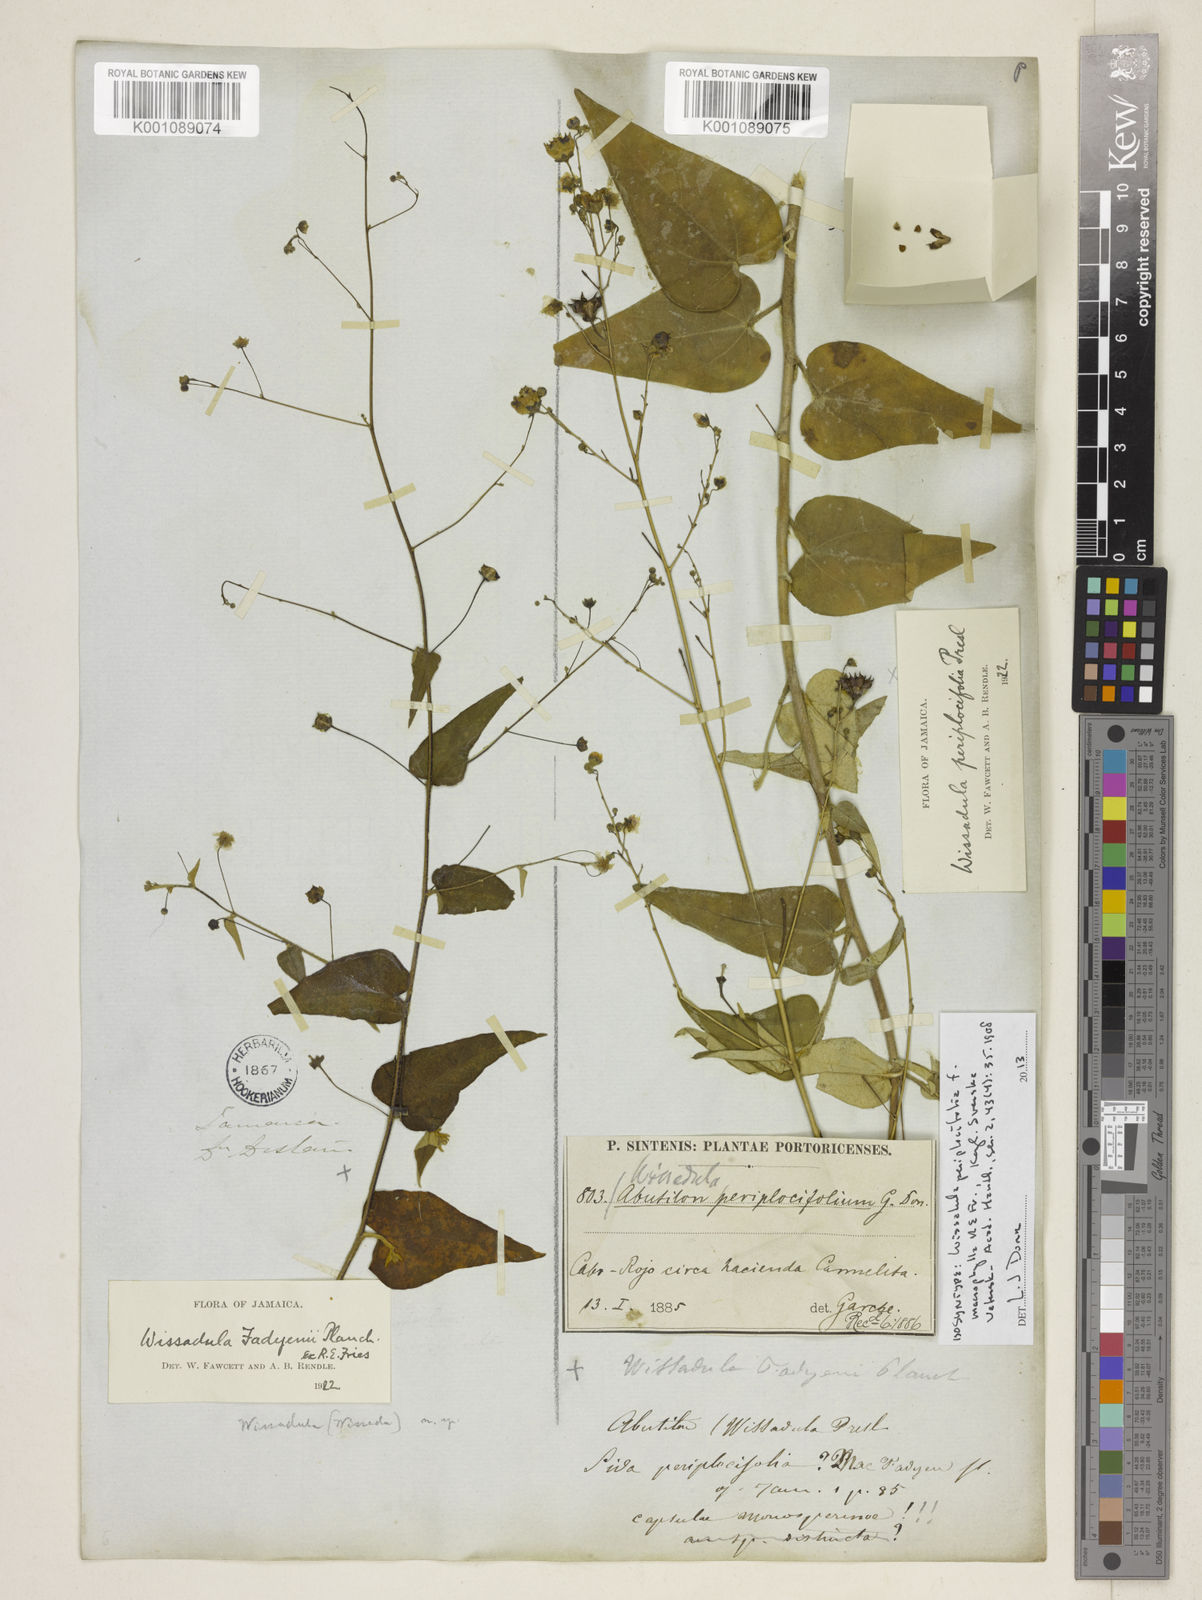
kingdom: Plantae
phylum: Tracheophyta
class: Magnoliopsida
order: Malvales
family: Malvaceae
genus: Wissadula
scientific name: Wissadula fadyenii
